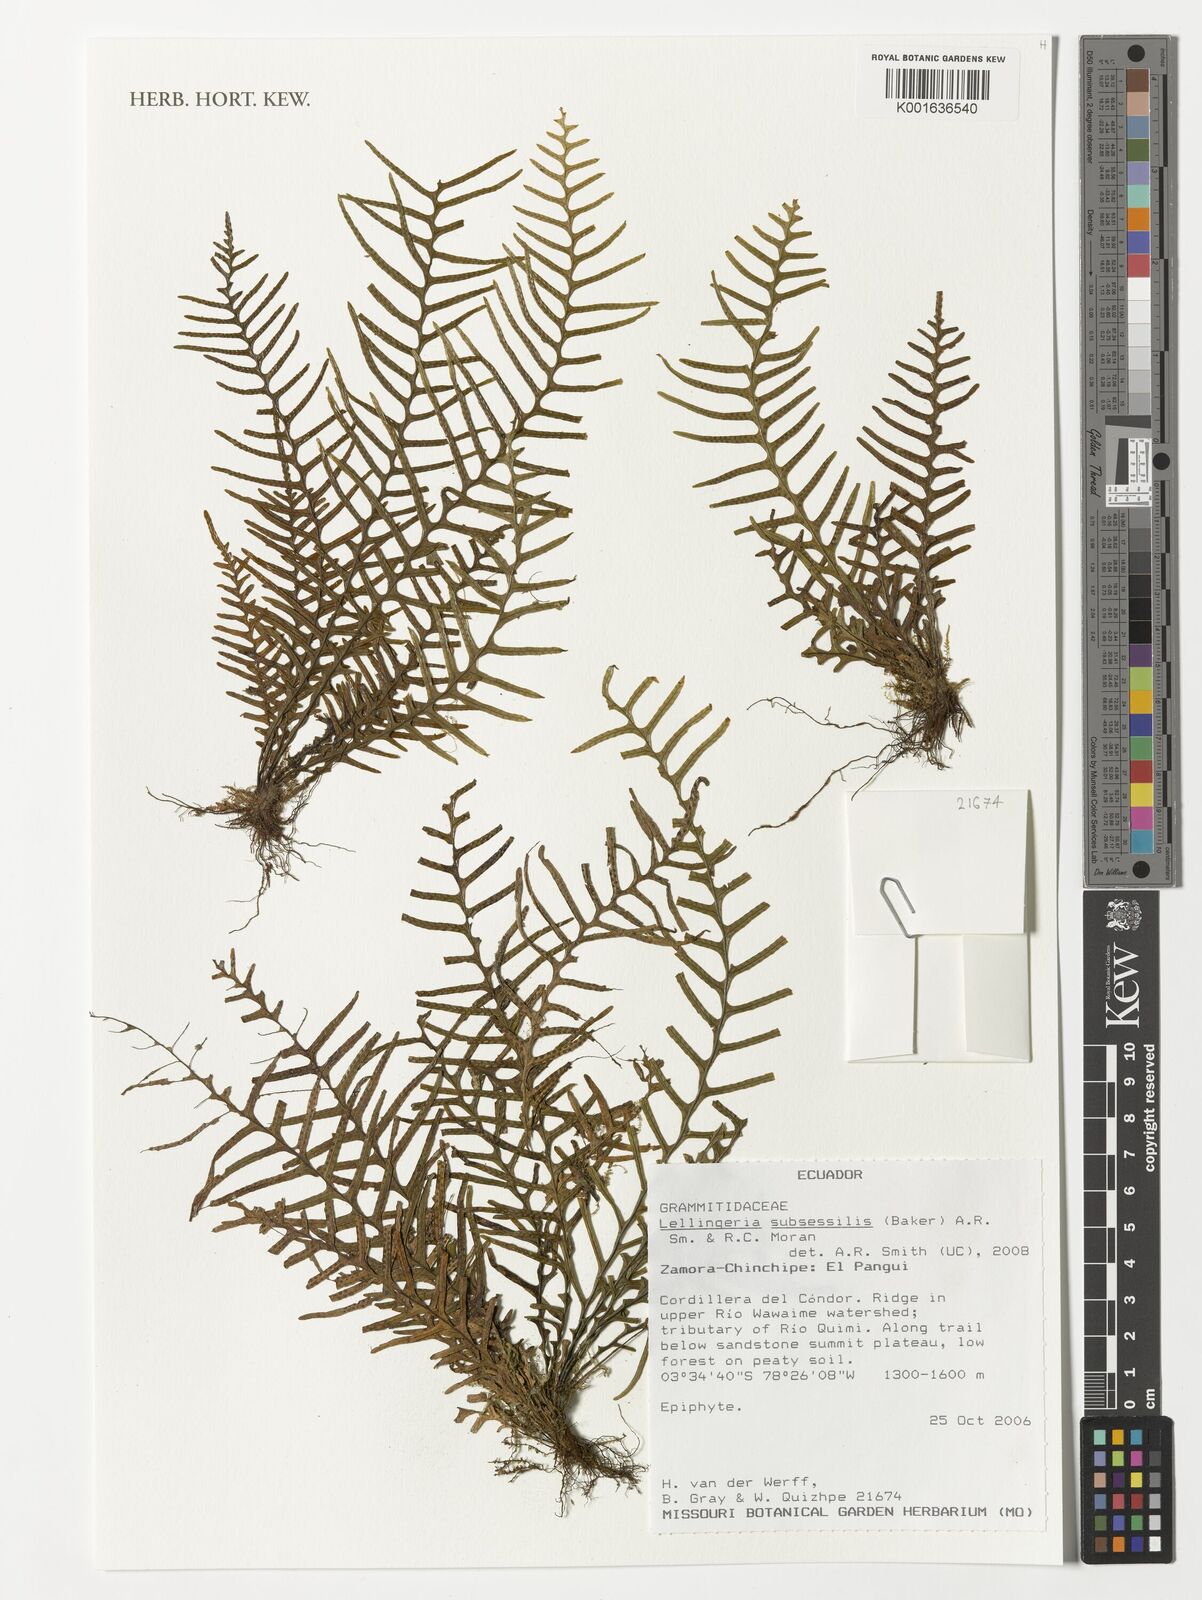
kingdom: Plantae
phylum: Tracheophyta
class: Polypodiopsida
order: Polypodiales
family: Polypodiaceae
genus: Lellingeria
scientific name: Lellingeria subsessilis
